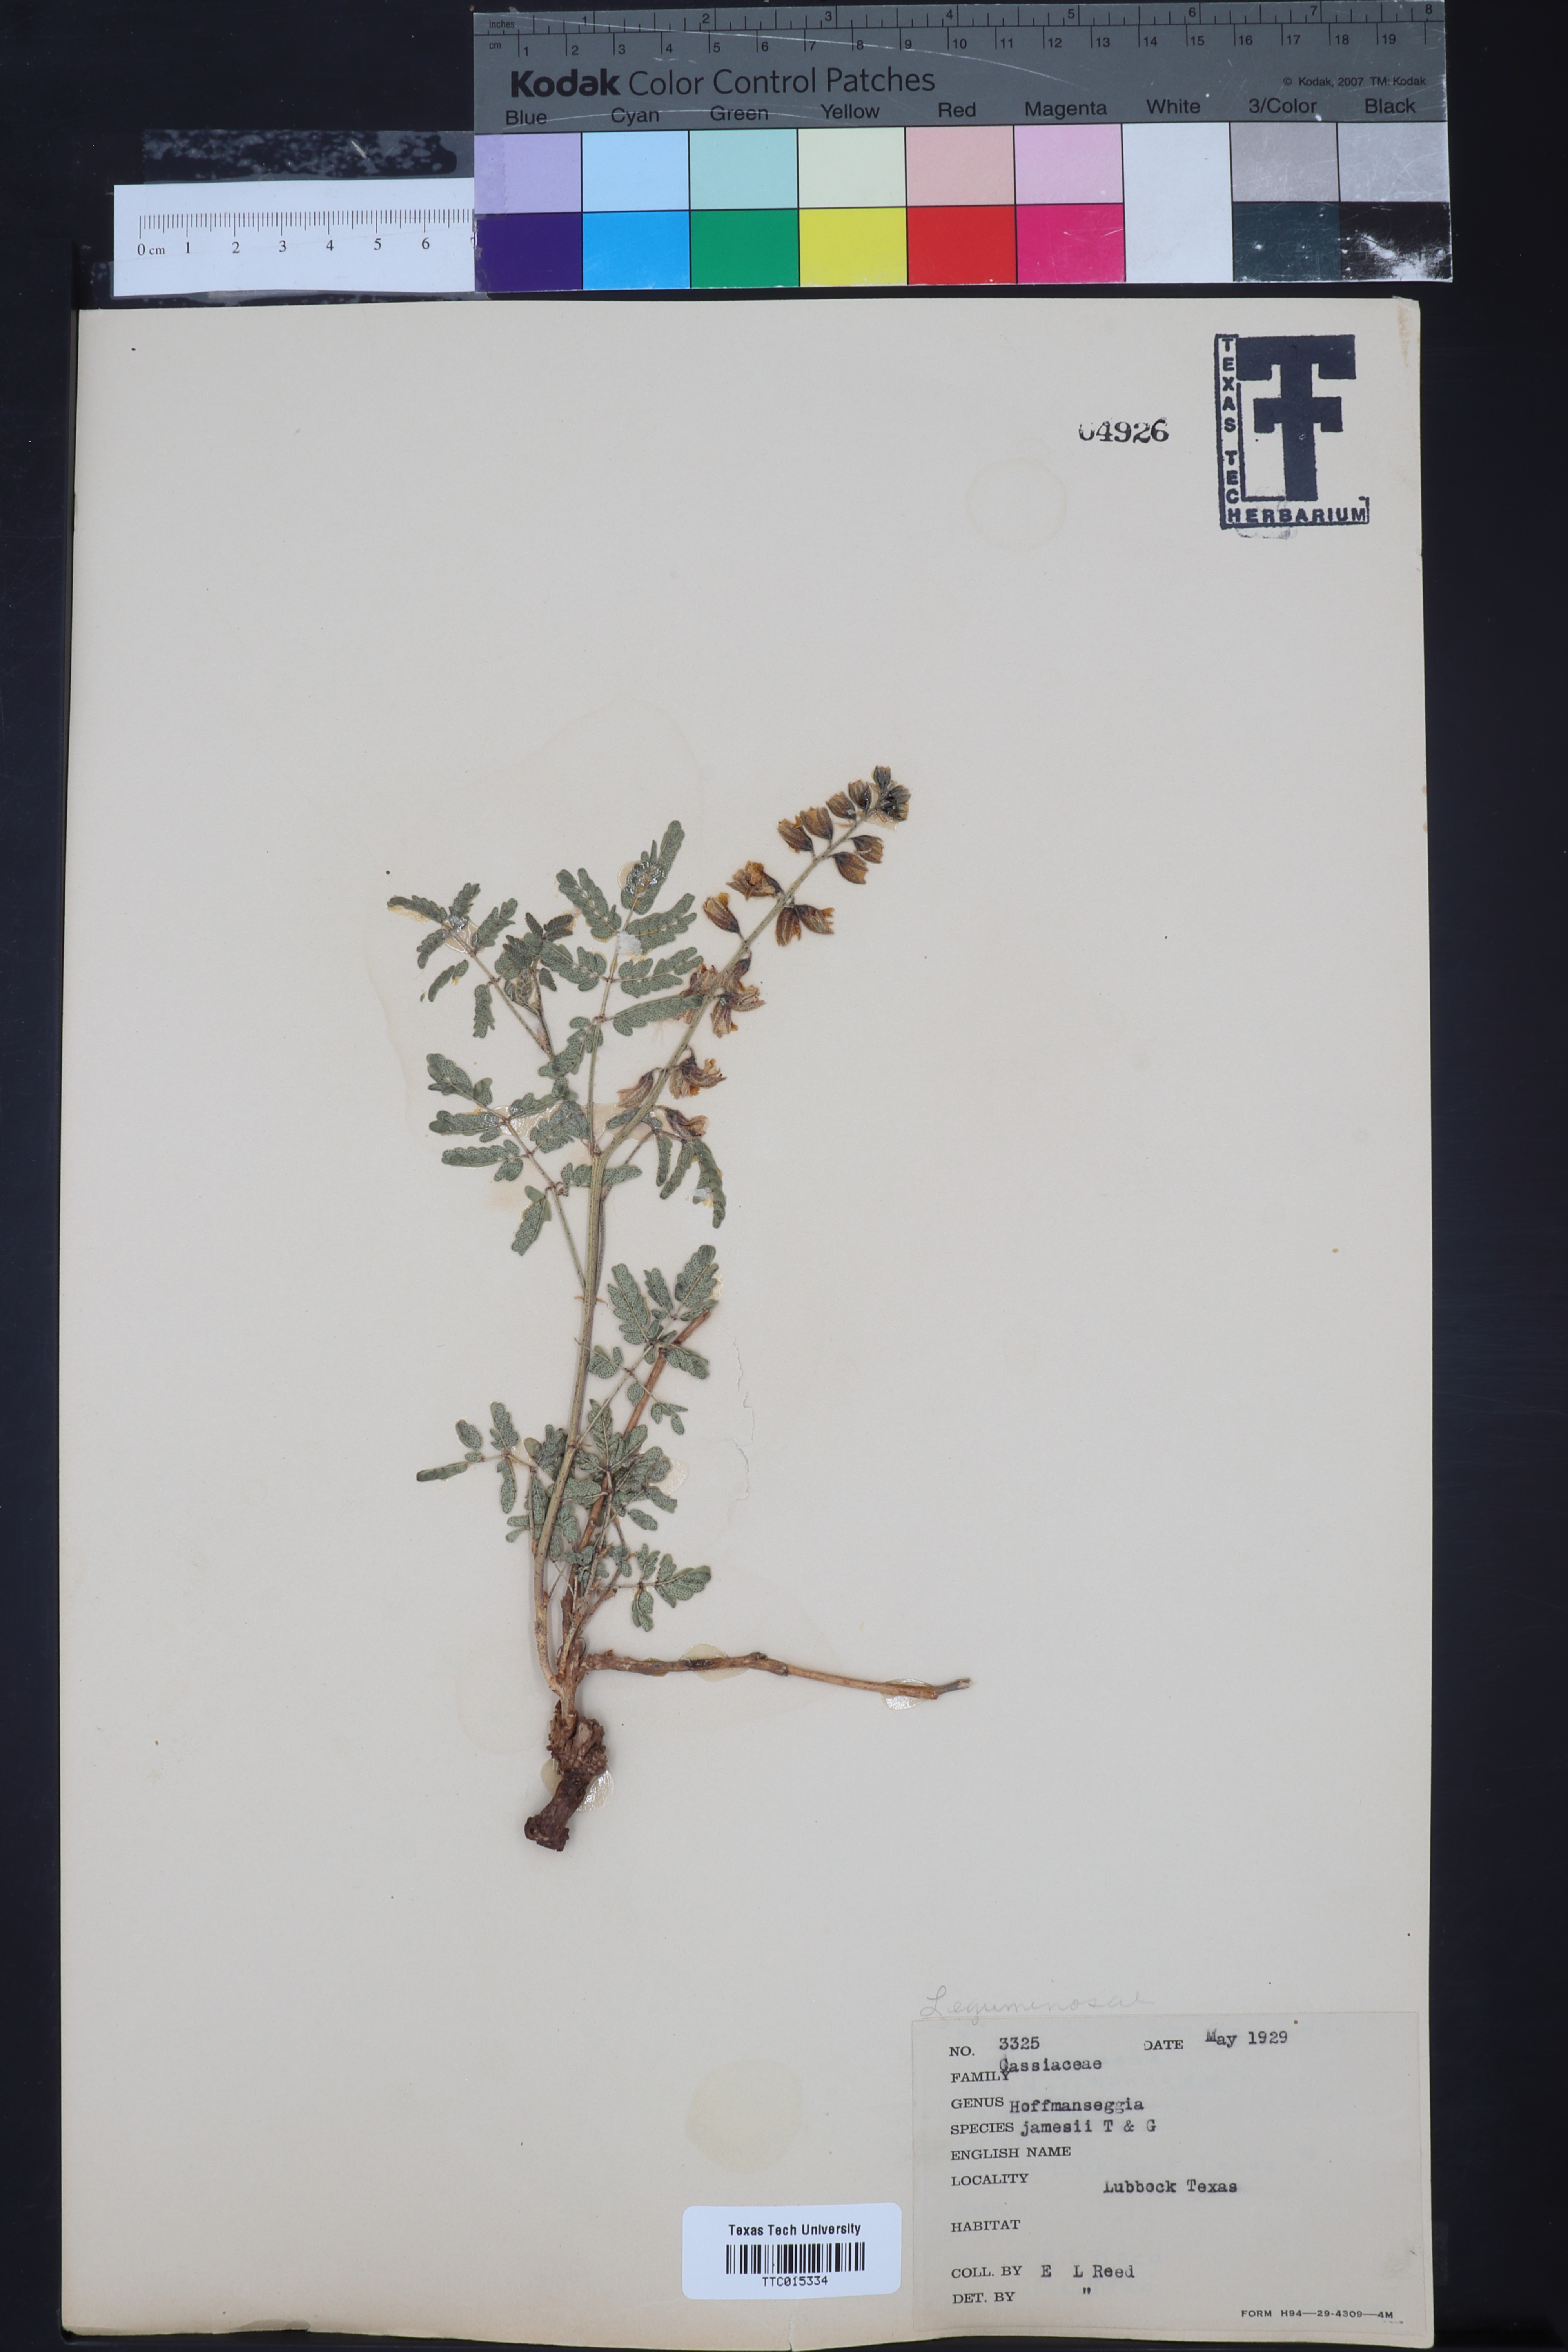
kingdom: Plantae
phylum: Tracheophyta
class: Magnoliopsida
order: Fabales
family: Fabaceae
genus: Pomaria
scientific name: Pomaria jamesii
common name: James' caesalpinia
